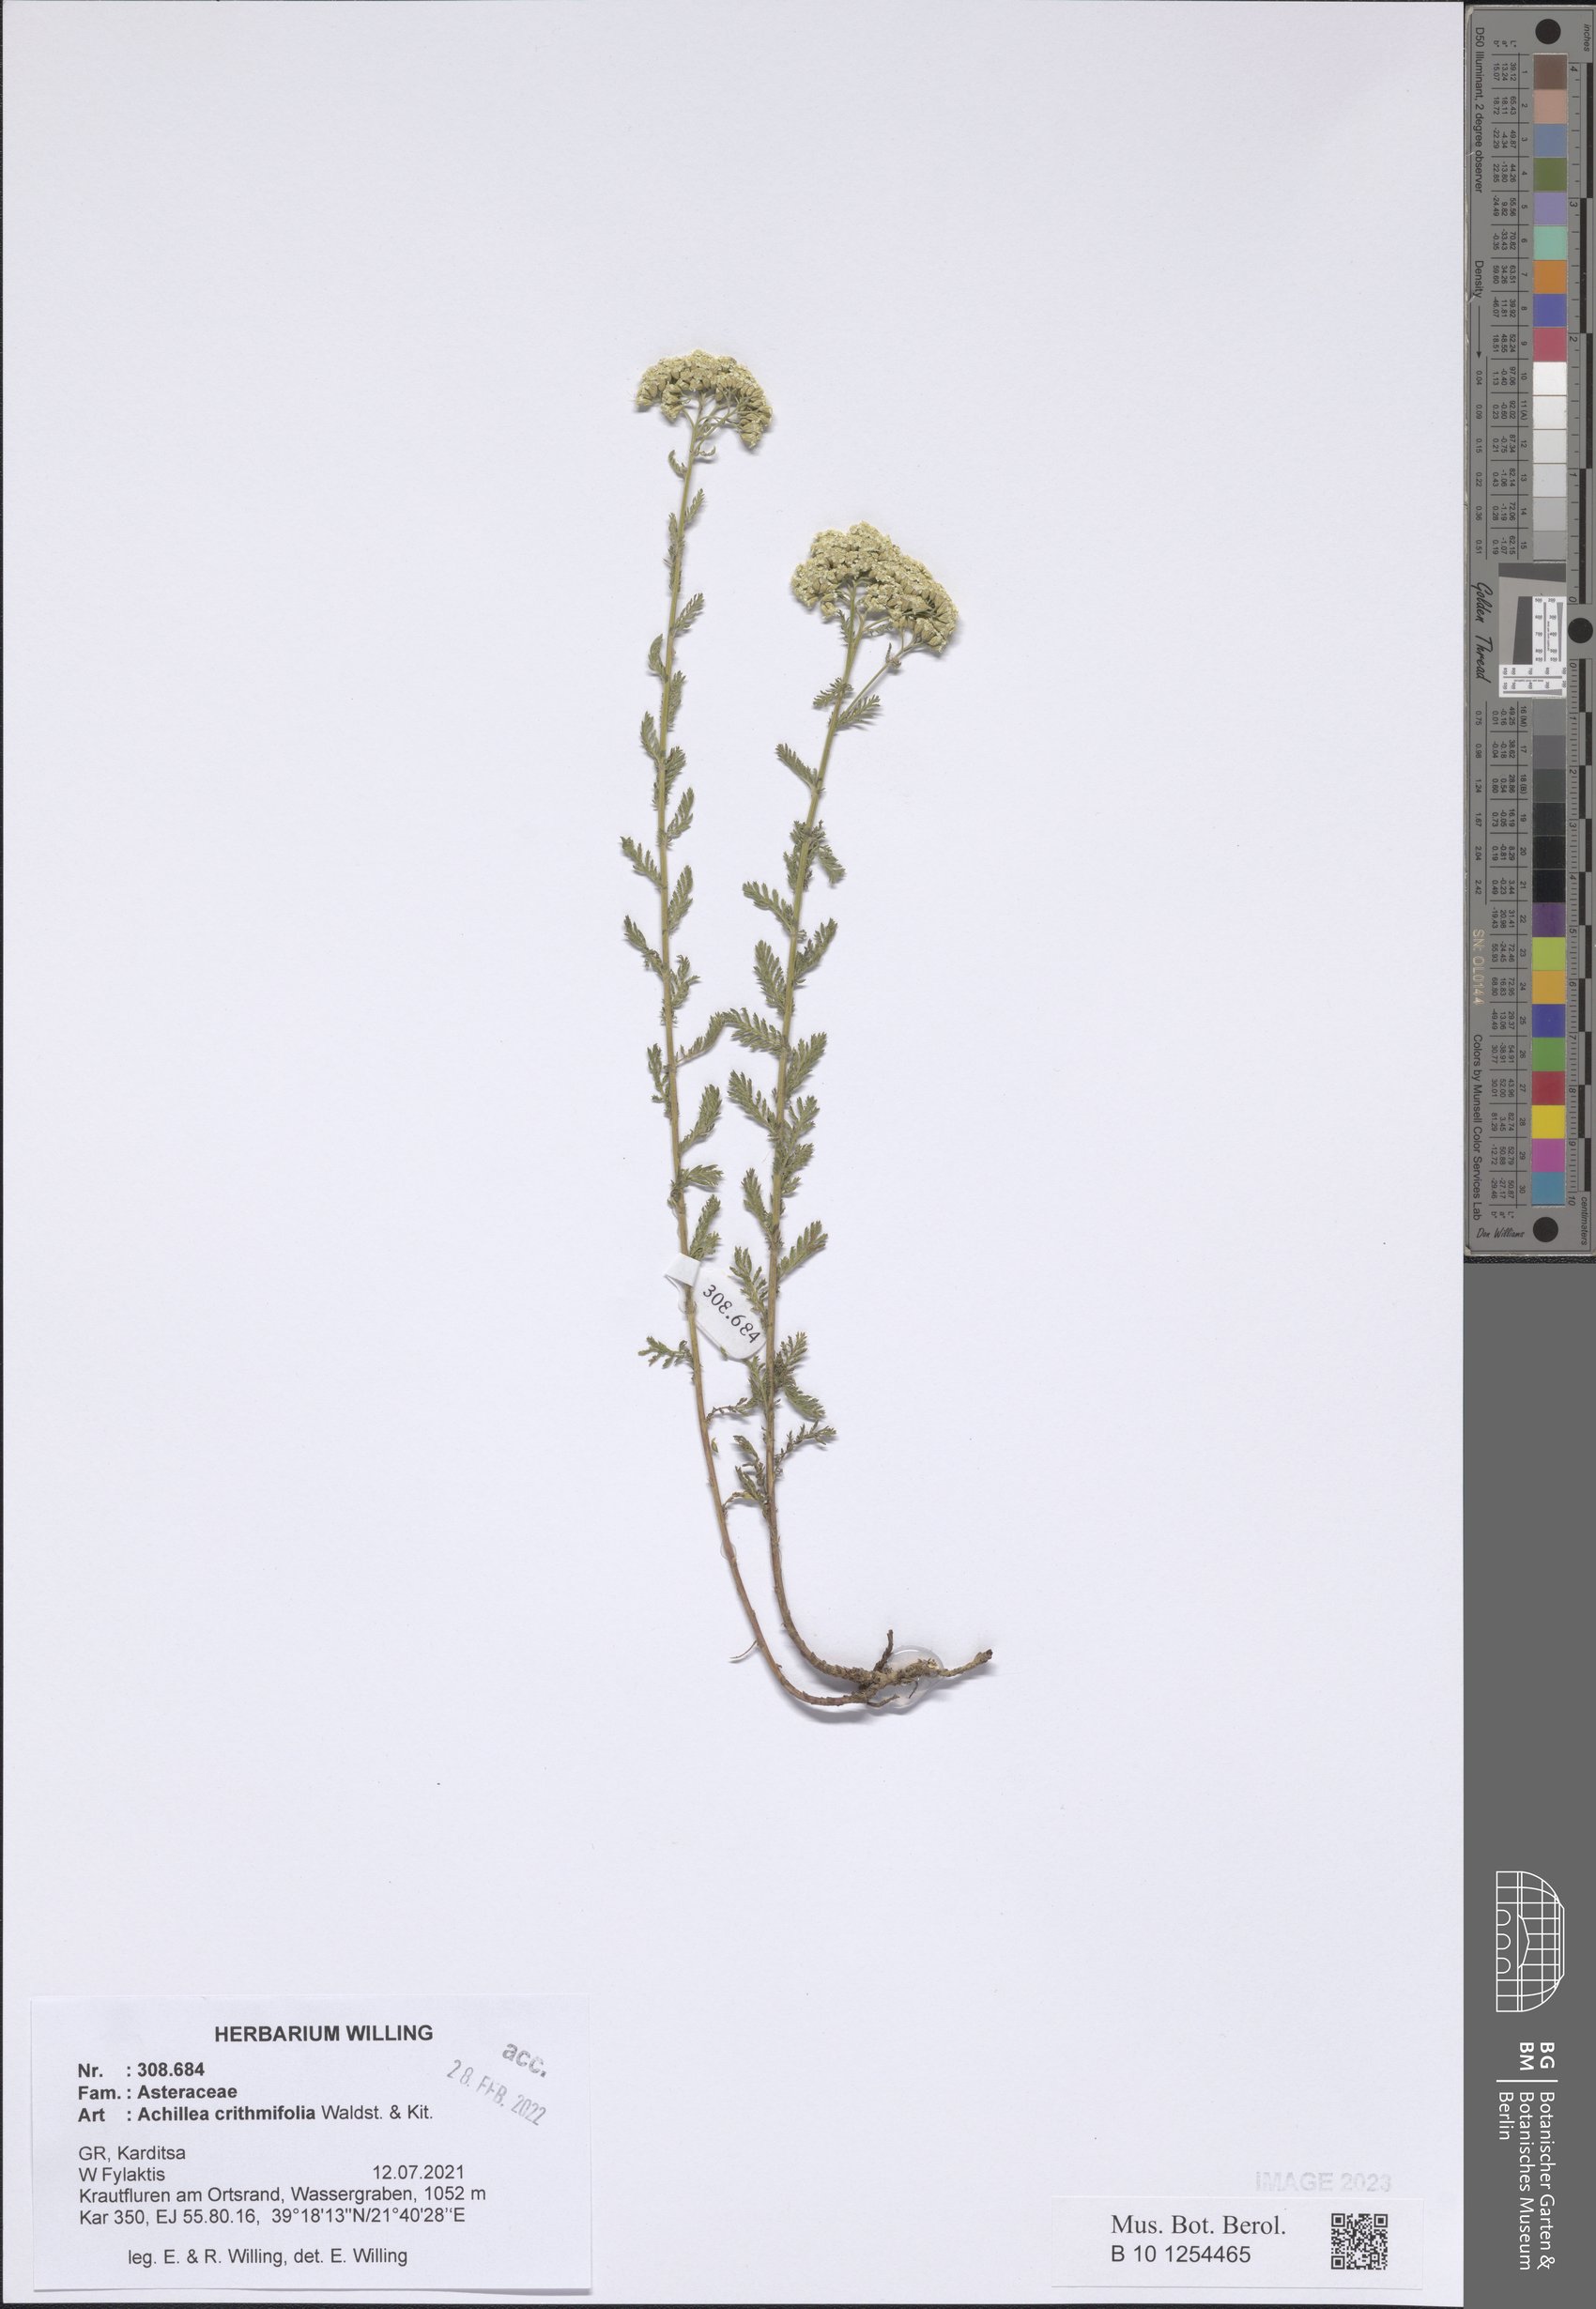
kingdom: Plantae
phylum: Tracheophyta
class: Magnoliopsida
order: Asterales
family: Asteraceae
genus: Achillea
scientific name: Achillea crithmifolia
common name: Yarrow
